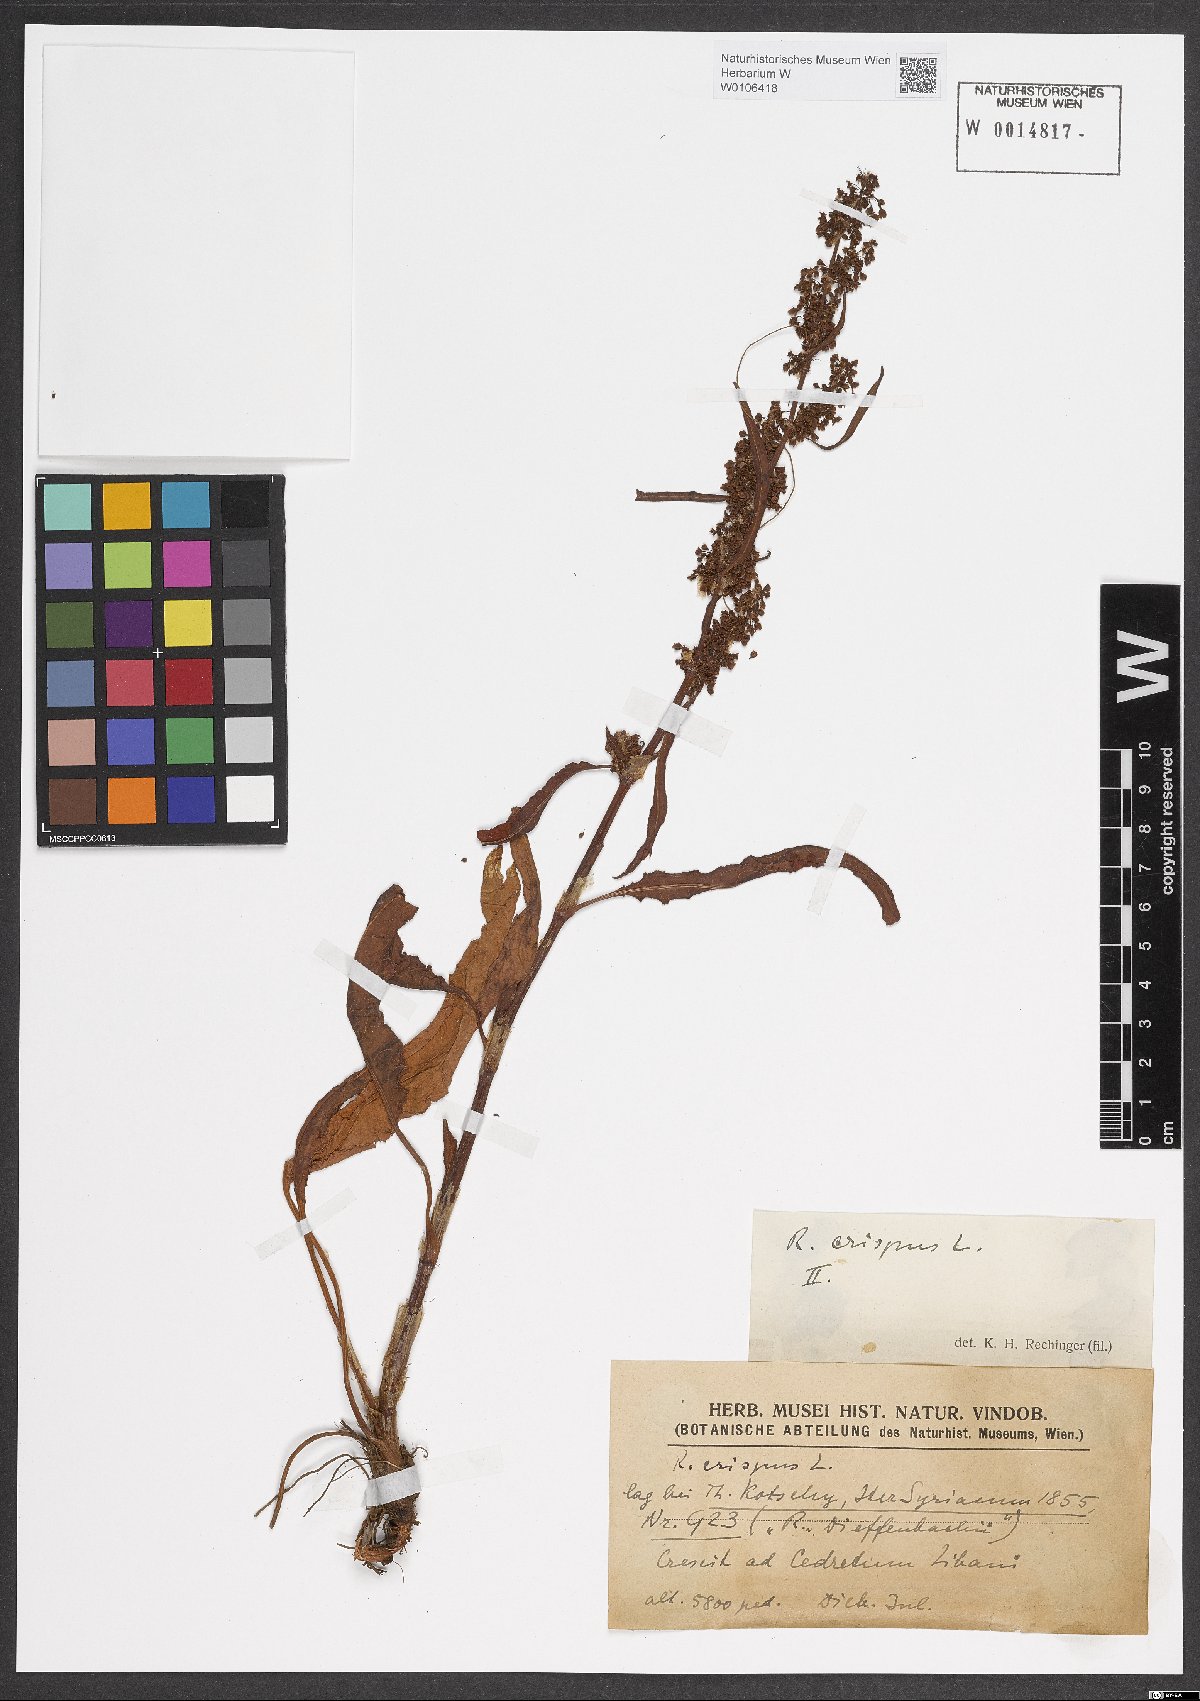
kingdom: Plantae
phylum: Tracheophyta
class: Magnoliopsida
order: Caryophyllales
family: Polygonaceae
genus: Rumex
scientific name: Rumex crispus
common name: Curled dock
